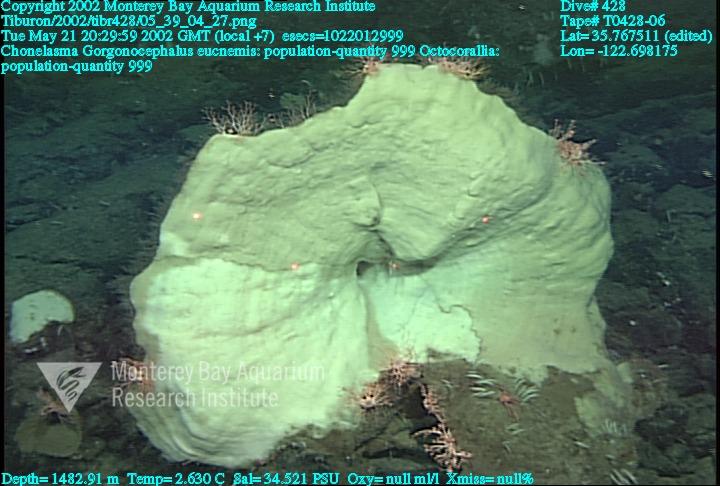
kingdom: Animalia
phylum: Porifera
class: Hexactinellida
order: Sceptrulophora
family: Euretidae
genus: Chonelasma
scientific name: Chonelasma
